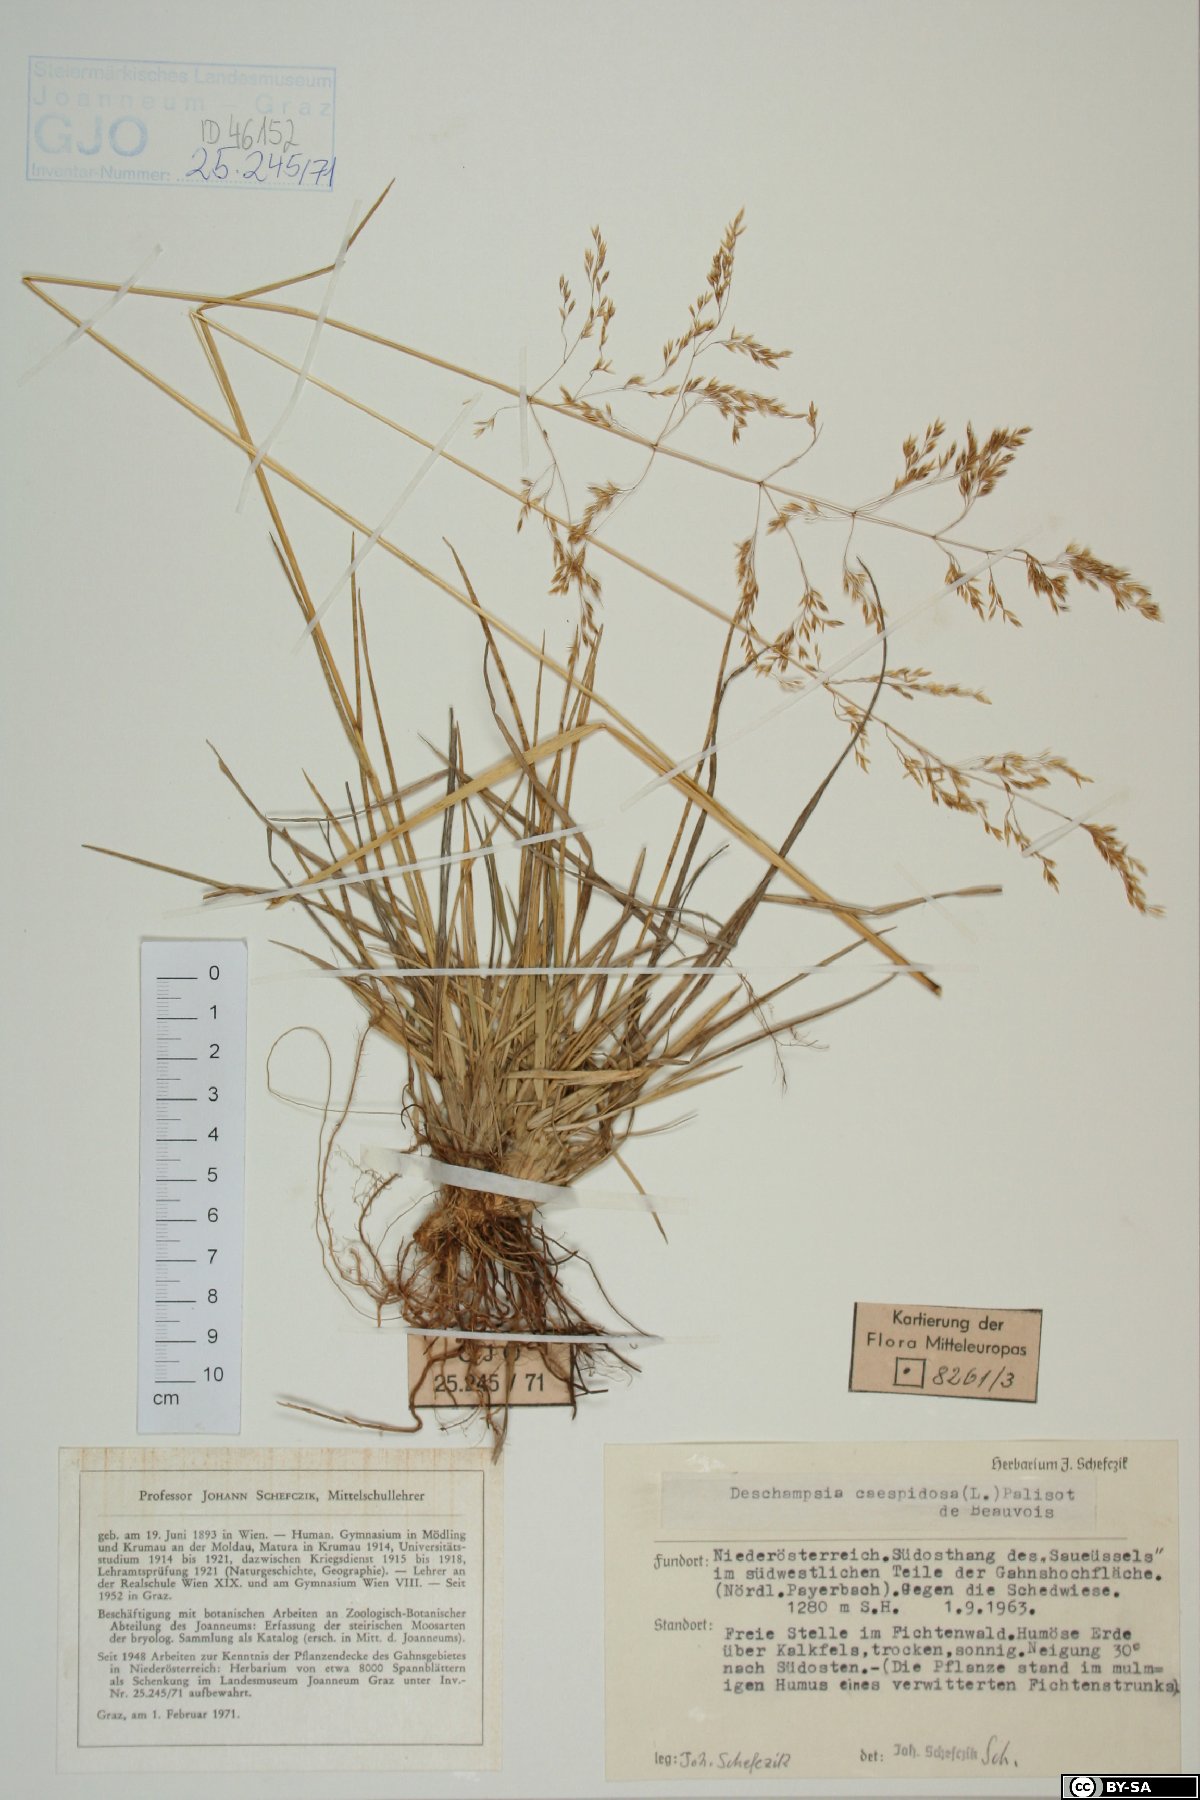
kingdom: Plantae
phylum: Tracheophyta
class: Liliopsida
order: Poales
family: Poaceae
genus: Deschampsia
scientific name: Deschampsia cespitosa
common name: Tufted hair-grass
